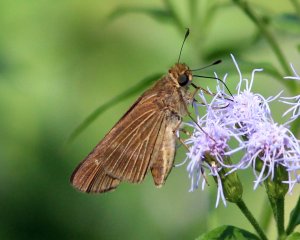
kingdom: Animalia
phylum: Arthropoda
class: Insecta
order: Lepidoptera
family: Hesperiidae
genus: Panoquina
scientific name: Panoquina ocola
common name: Ocola Skipper
